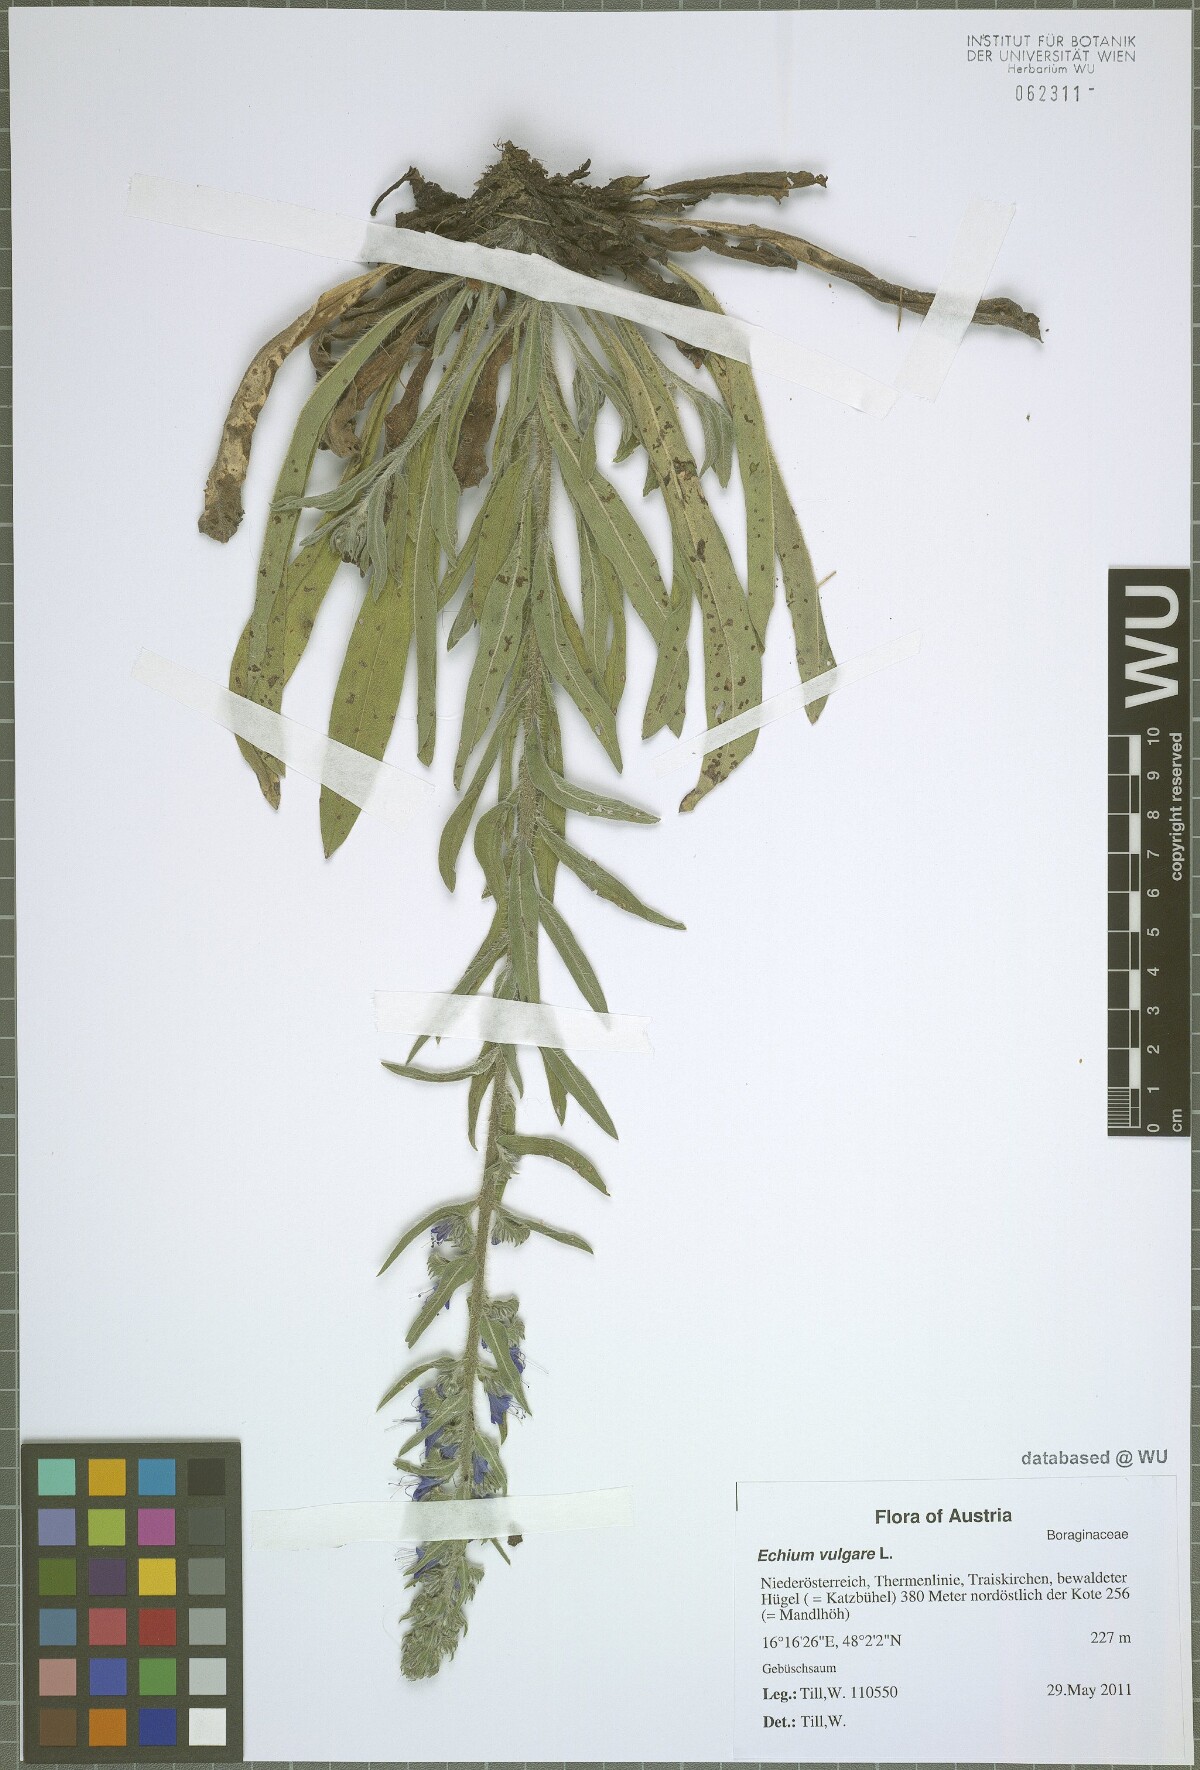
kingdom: Plantae
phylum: Tracheophyta
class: Magnoliopsida
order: Boraginales
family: Boraginaceae
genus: Echium
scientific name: Echium vulgare
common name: Common viper's bugloss
